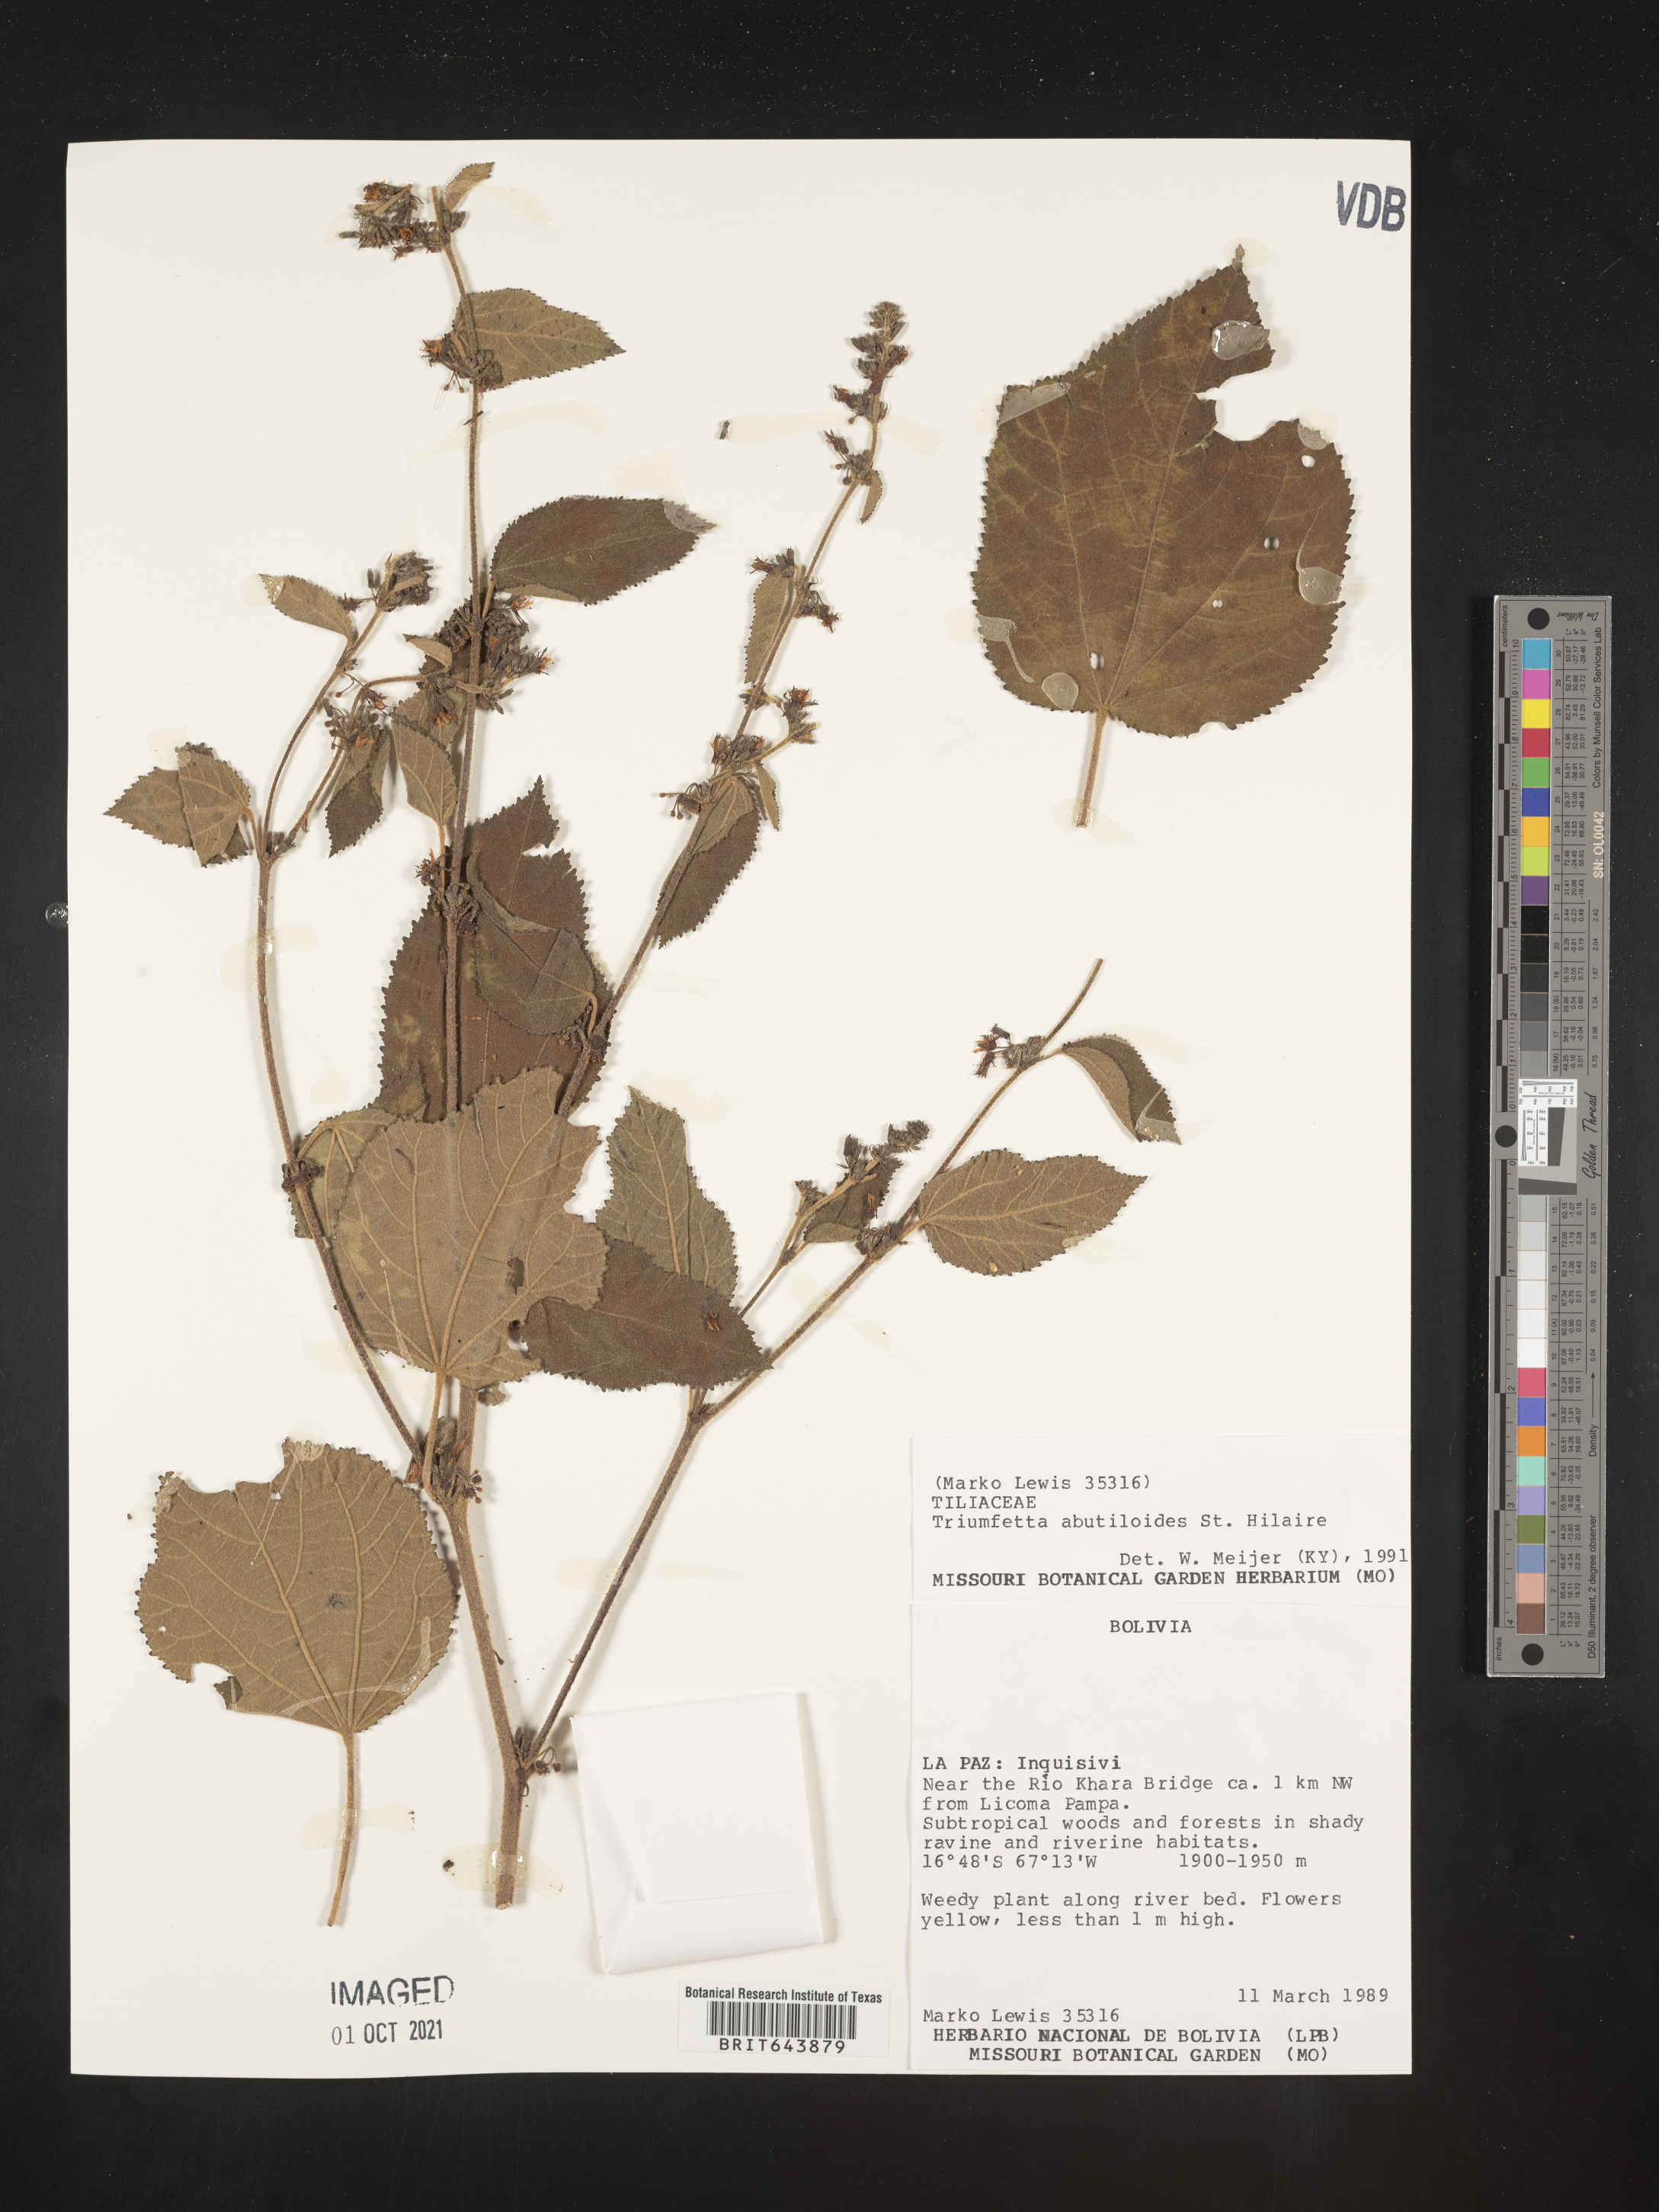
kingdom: Plantae
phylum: Tracheophyta
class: Magnoliopsida
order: Malvales
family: Malvaceae
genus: Triumfetta
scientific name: Triumfetta
